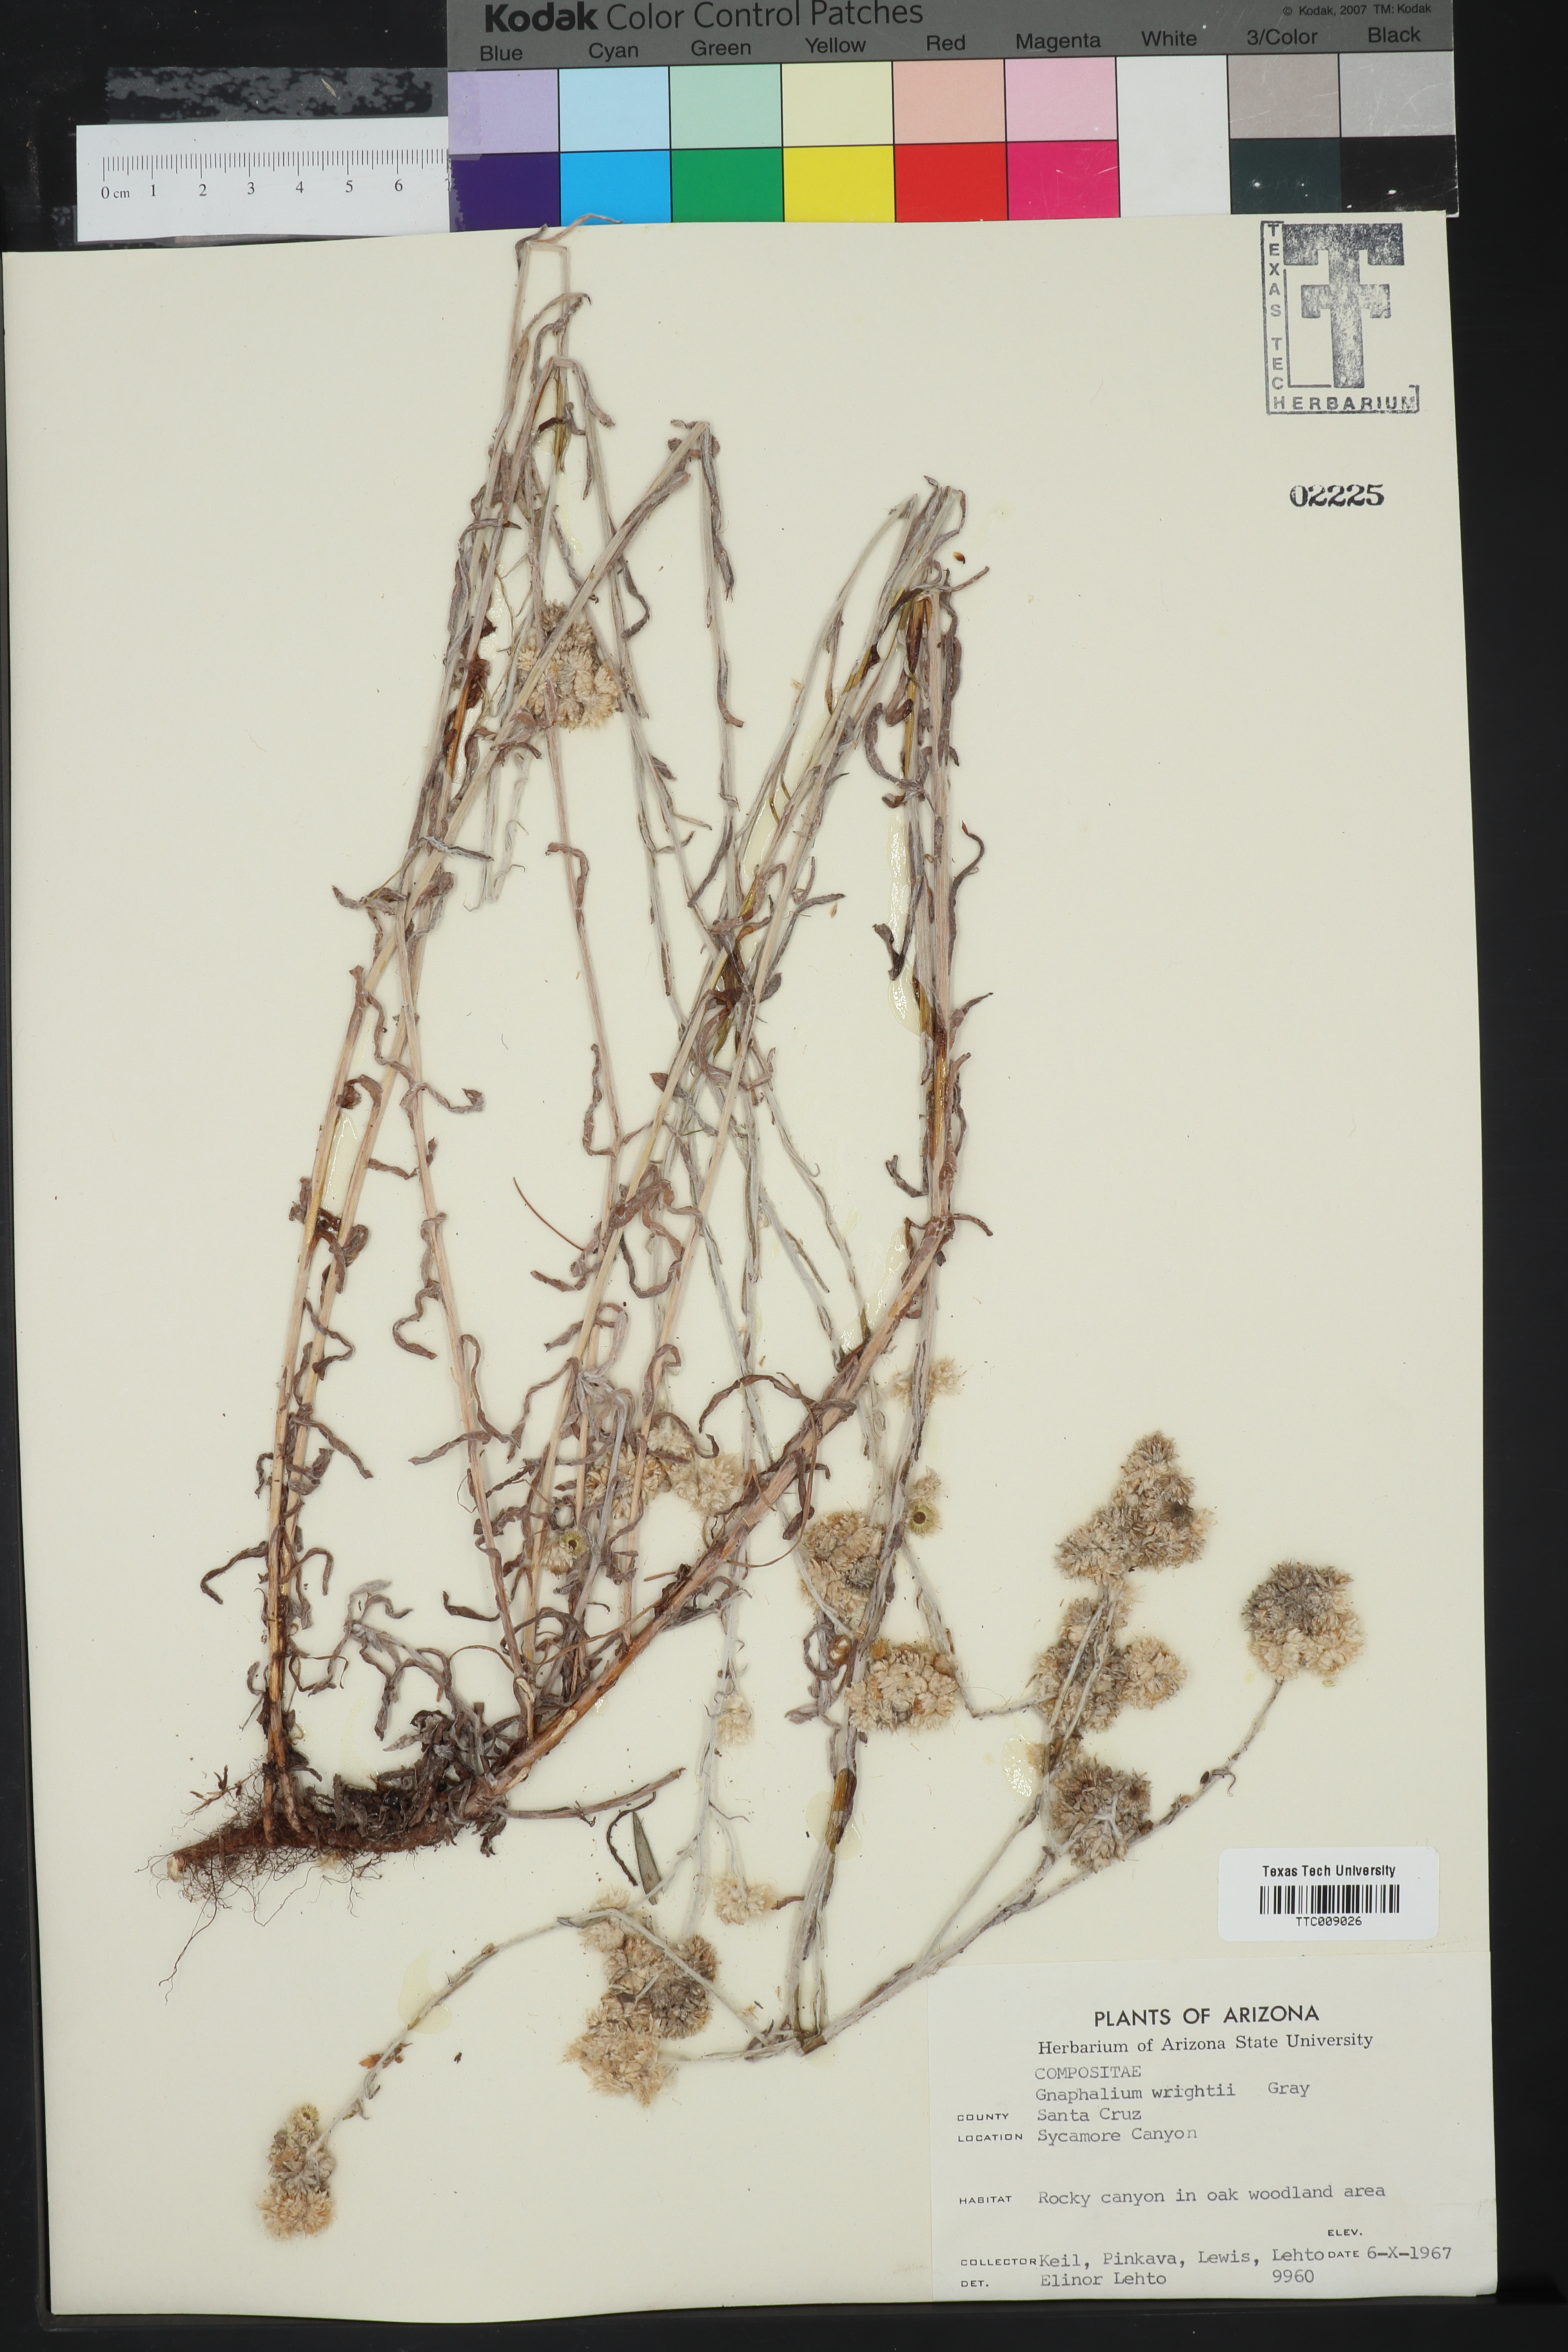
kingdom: Plantae
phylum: Tracheophyta
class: Magnoliopsida
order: Asterales
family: Asteraceae
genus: Pseudognaphalium
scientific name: Pseudognaphalium canescens
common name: Wright's rabbit-tobacco
